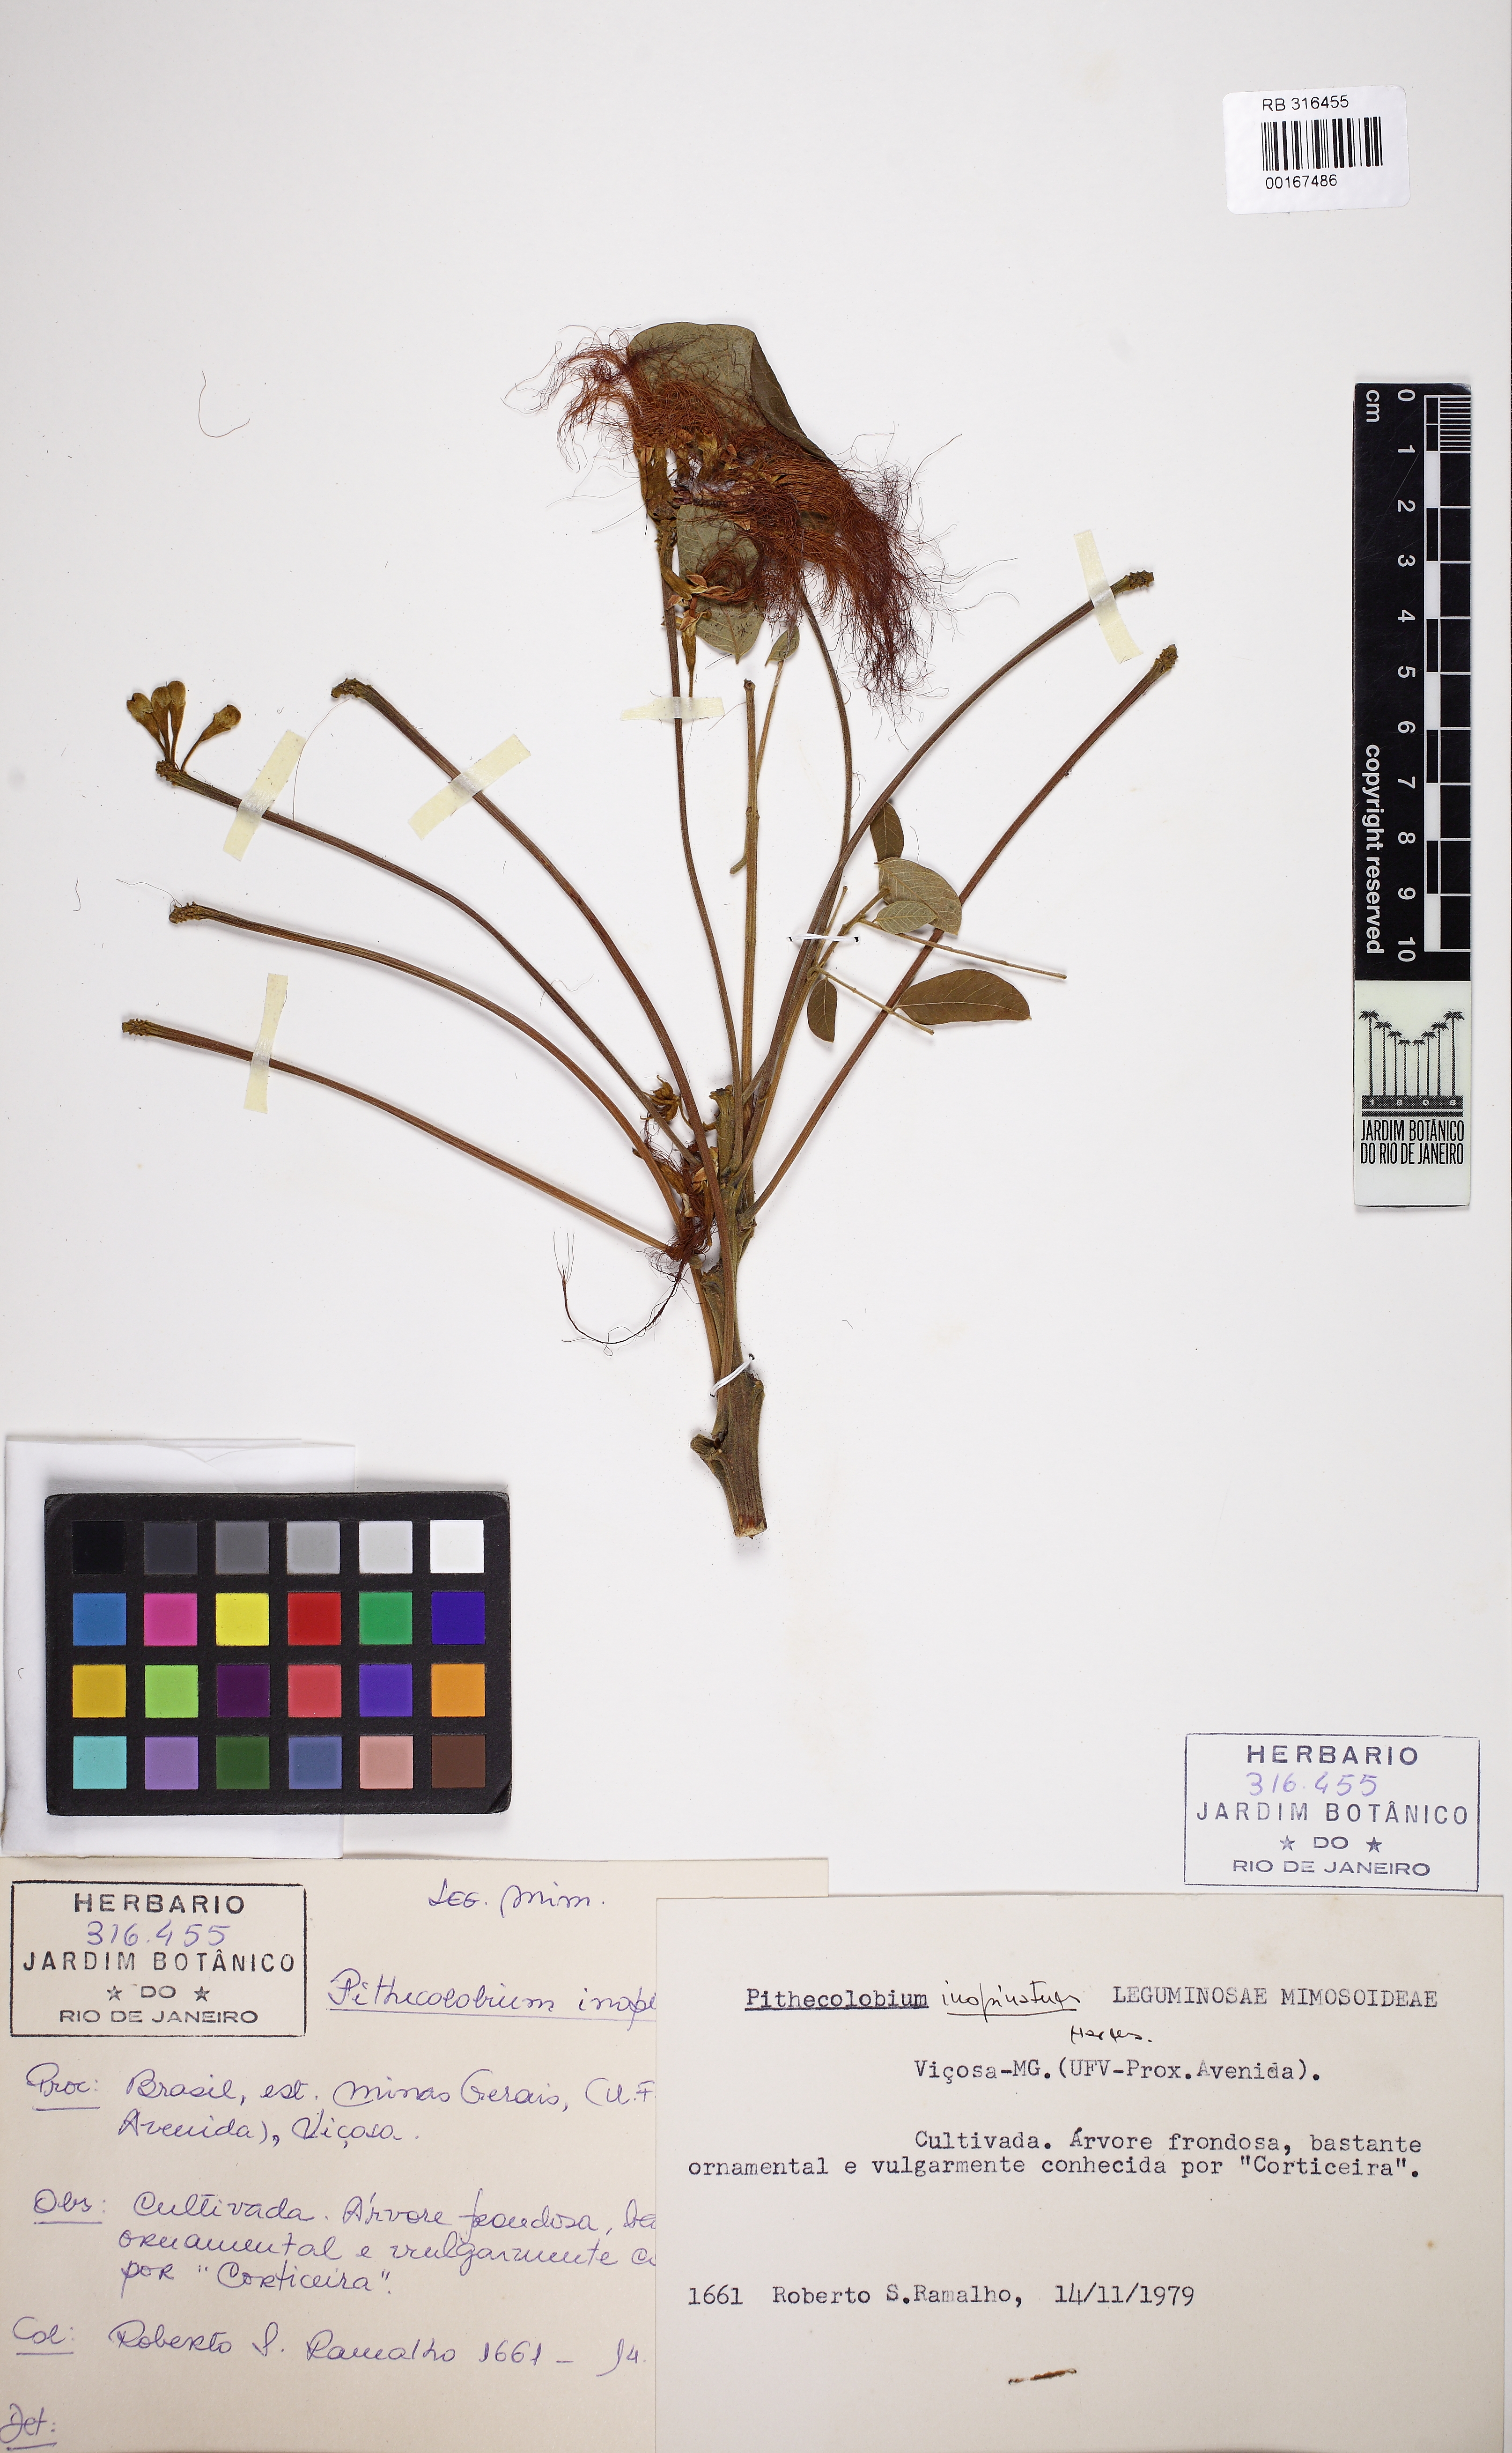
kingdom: Plantae
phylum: Tracheophyta
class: Magnoliopsida
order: Fabales
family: Fabaceae
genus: Samanea
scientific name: Samanea inopinata
